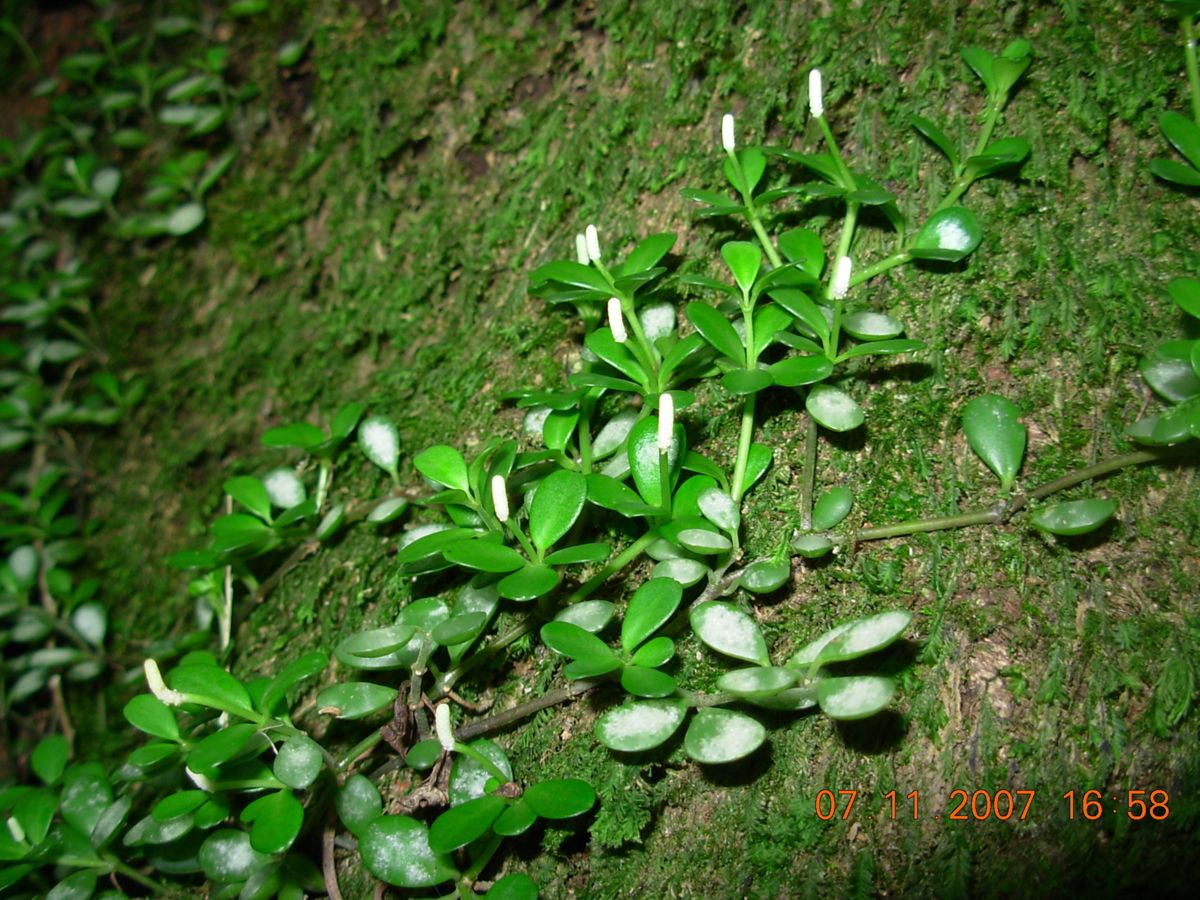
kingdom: Plantae
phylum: Tracheophyta
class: Magnoliopsida
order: Piperales
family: Piperaceae
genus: Peperomia
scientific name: Peperomia tenerrima
